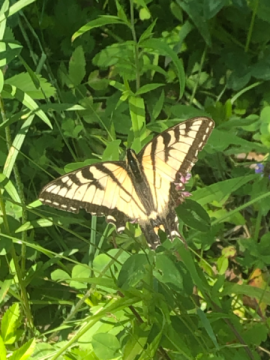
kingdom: Animalia
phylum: Arthropoda
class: Insecta
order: Lepidoptera
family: Papilionidae
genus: Pterourus
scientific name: Pterourus canadensis
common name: Canadian Tiger Swallowtail
